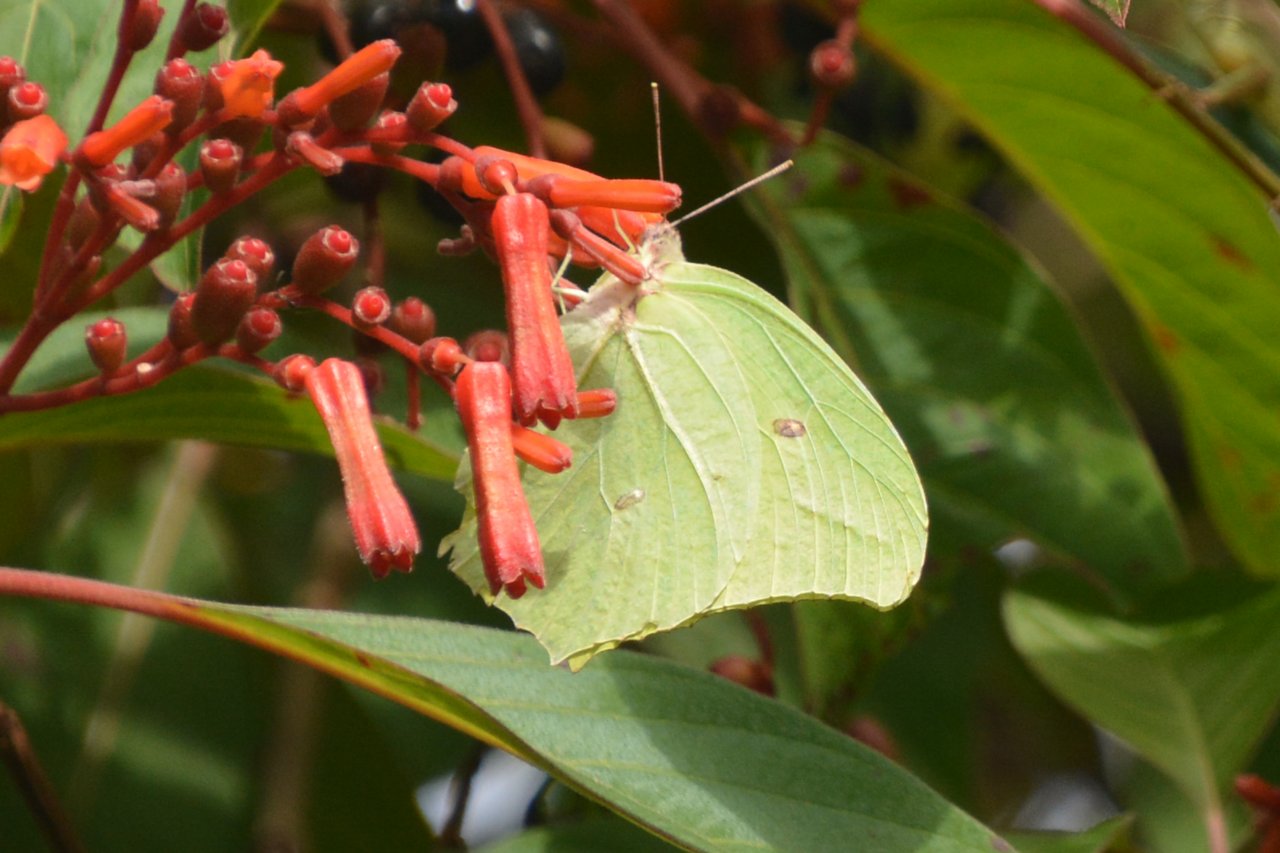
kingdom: Animalia
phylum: Arthropoda
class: Insecta
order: Lepidoptera
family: Pieridae
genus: Anteos
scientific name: Anteos maerula
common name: Yellow Angled-Sulphur
